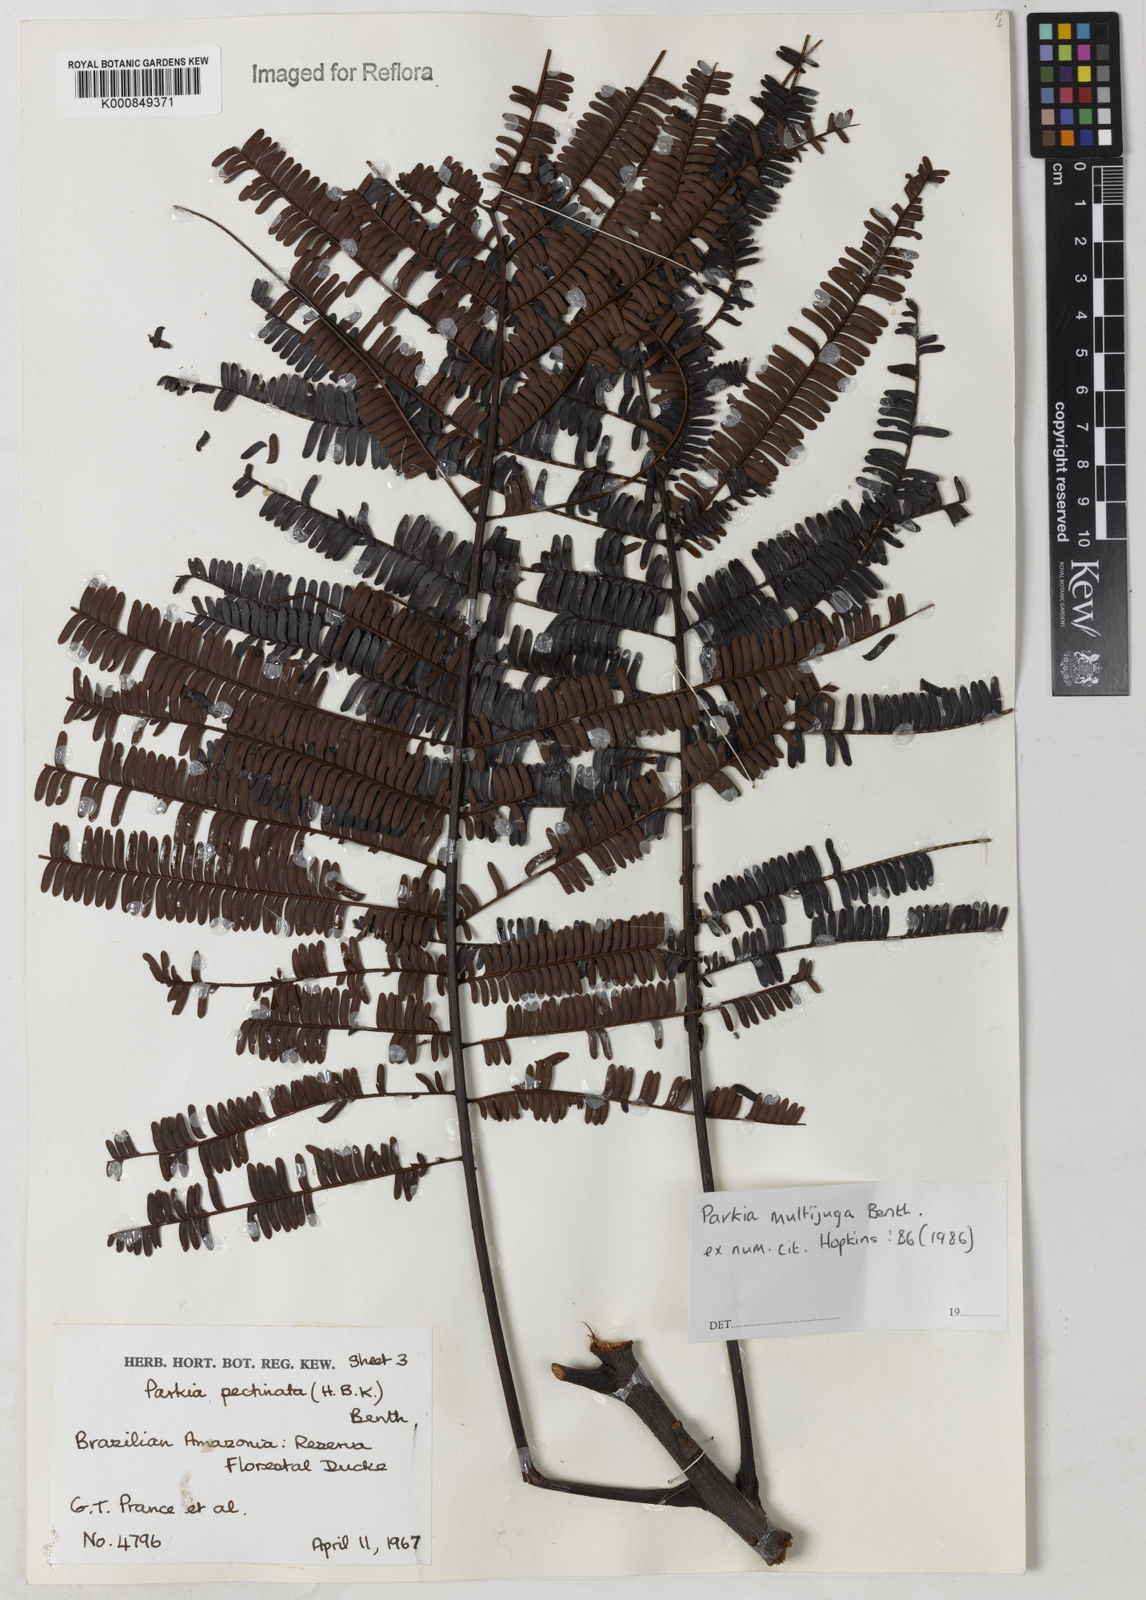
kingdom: Plantae
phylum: Tracheophyta
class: Magnoliopsida
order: Fabales
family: Fabaceae
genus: Parkia
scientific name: Parkia multijuga
